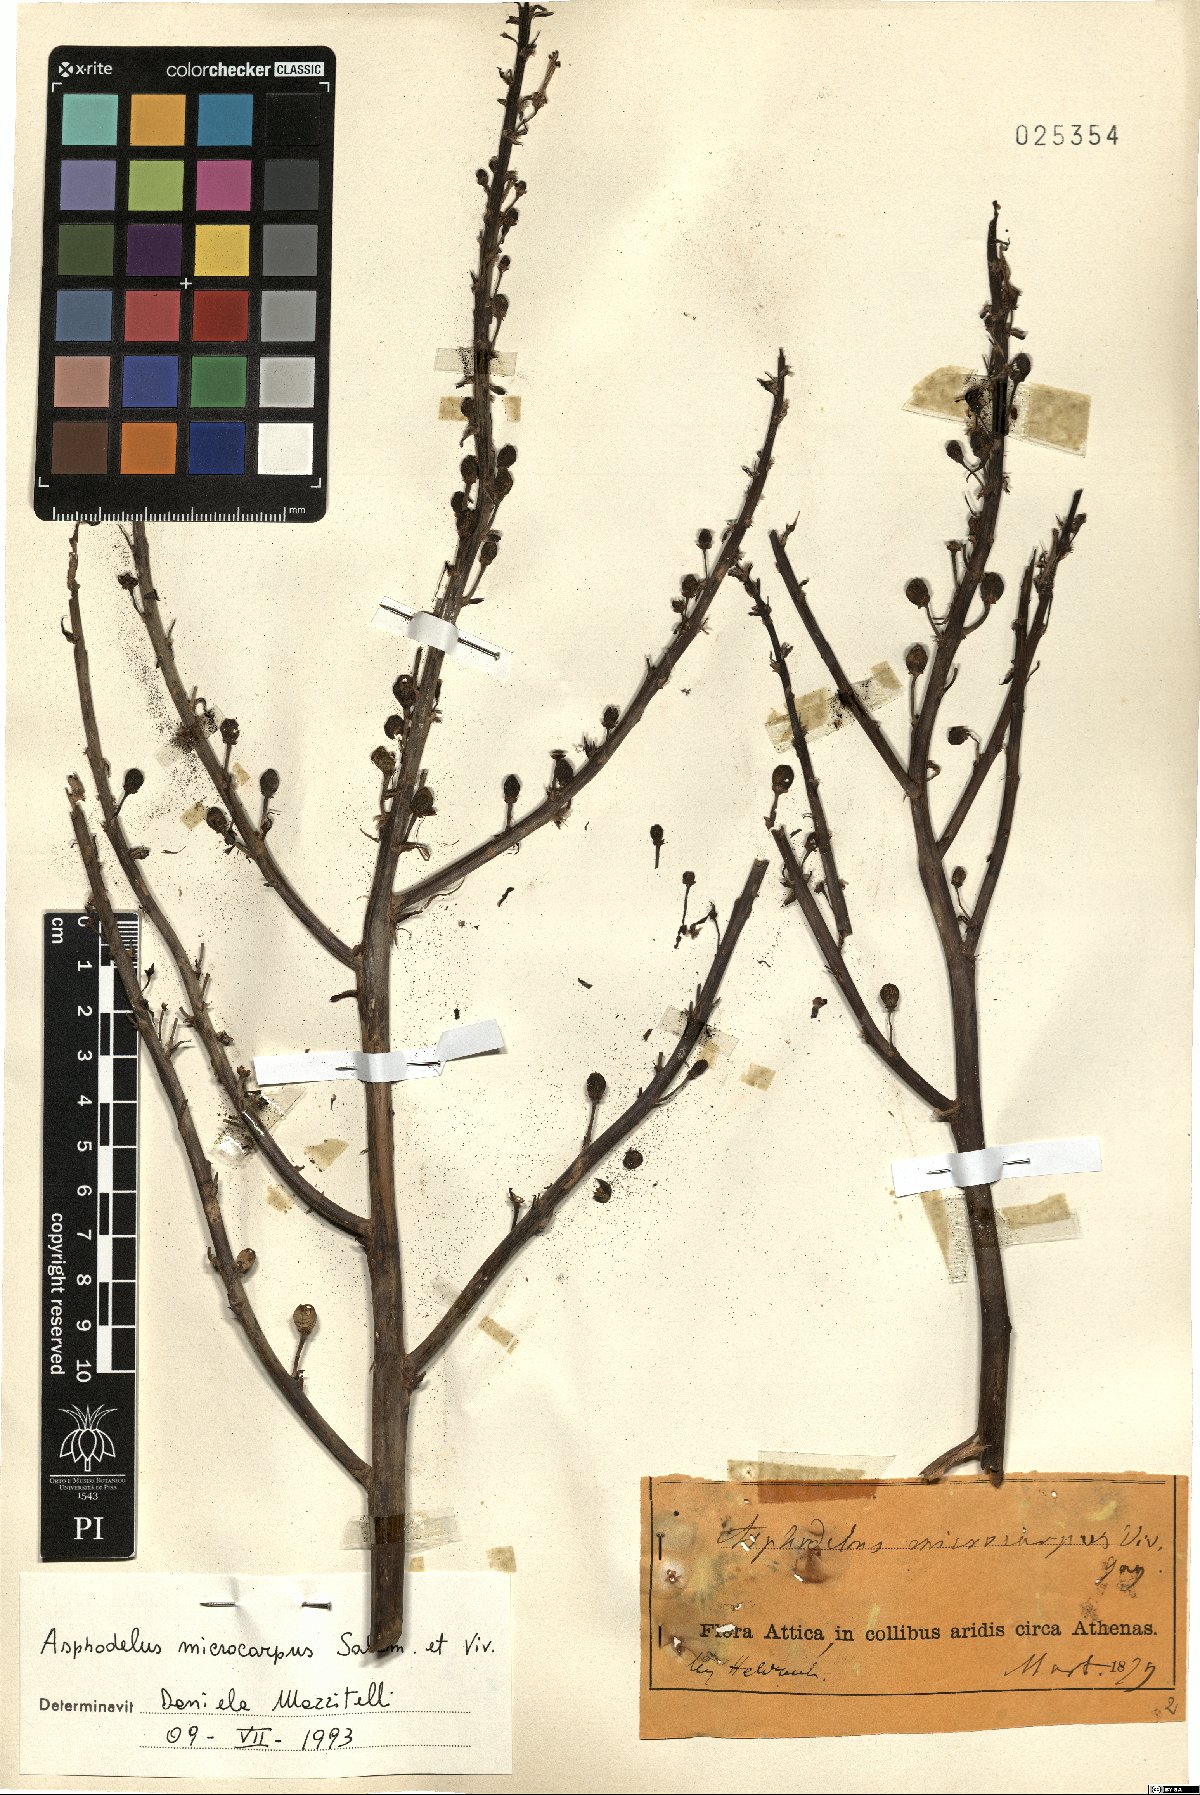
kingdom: Plantae
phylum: Tracheophyta
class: Liliopsida
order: Asparagales
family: Asphodelaceae
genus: Asphodelus
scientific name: Asphodelus ramosus
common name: Silverrod
